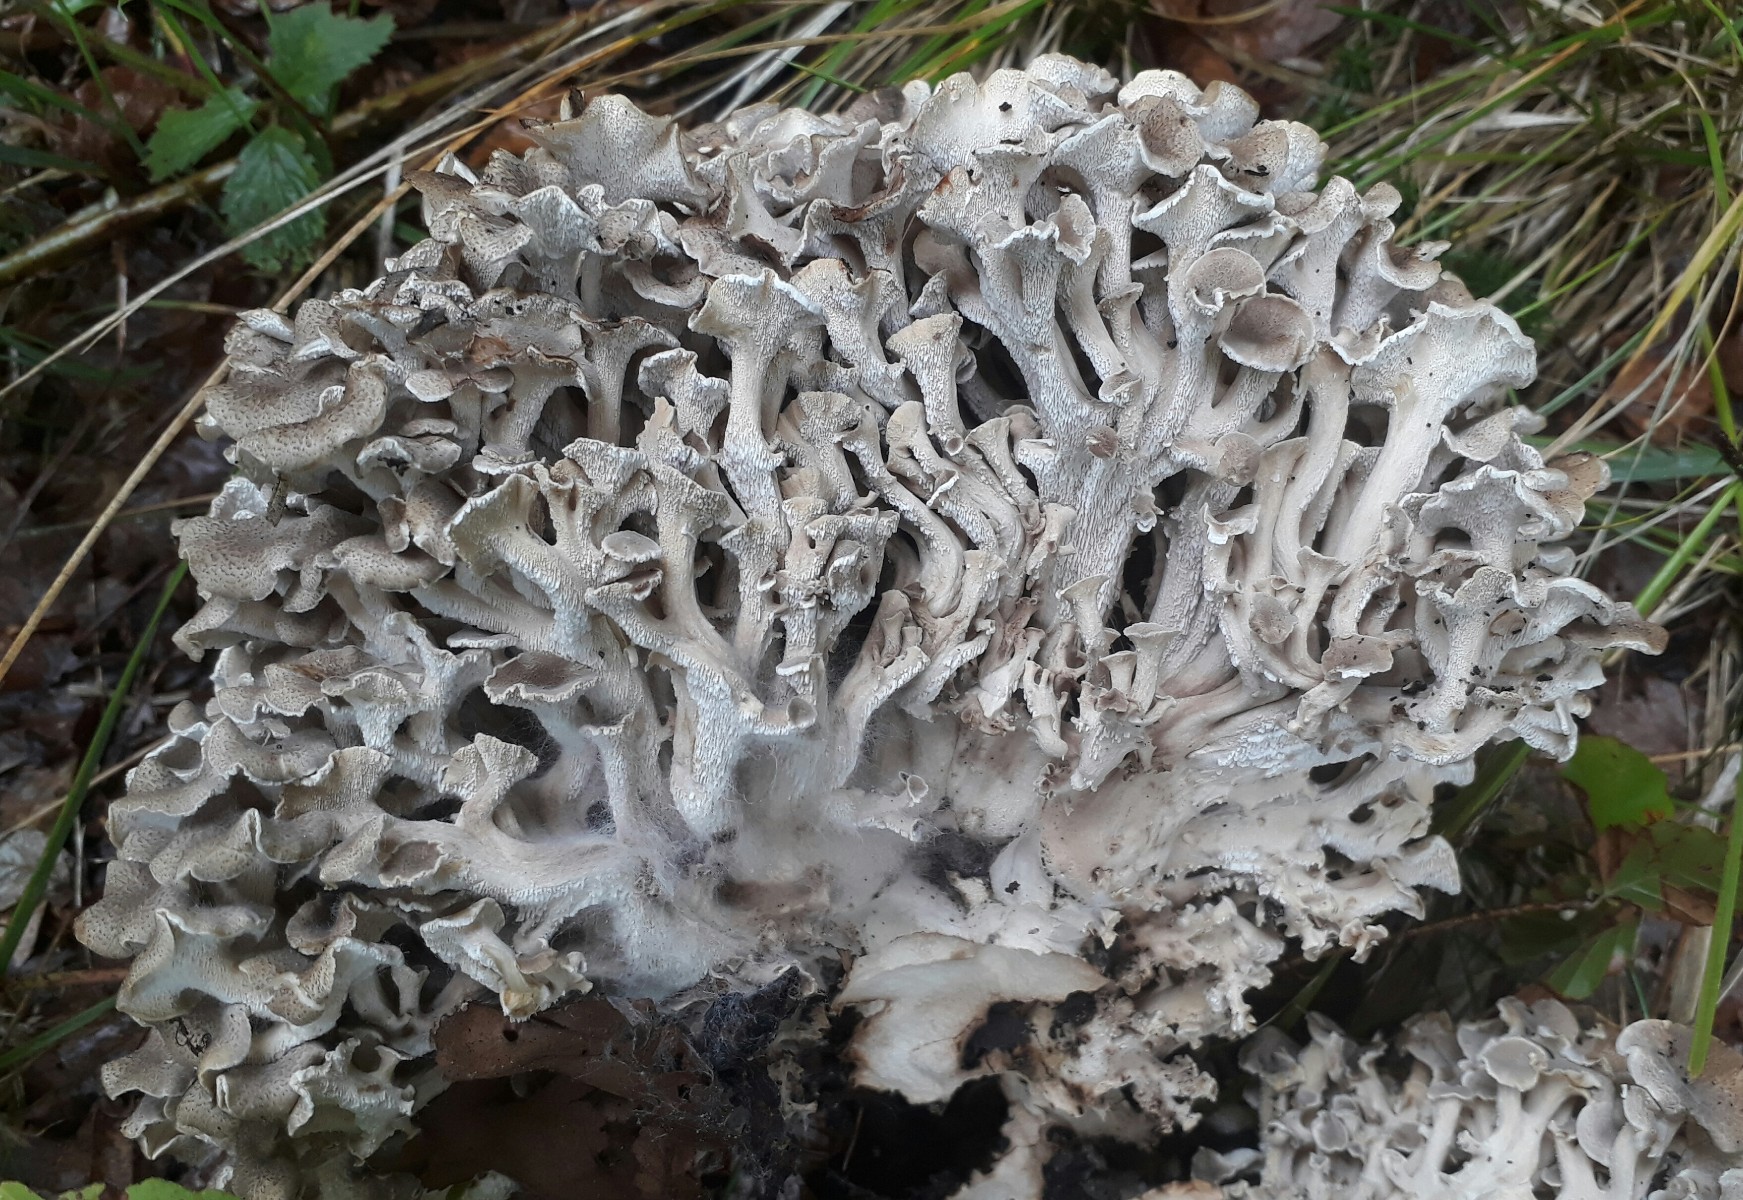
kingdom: Fungi
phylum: Basidiomycota
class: Agaricomycetes
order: Polyporales
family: Polyporaceae
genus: Polyporus
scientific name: Polyporus umbellatus
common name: skærmformet stilkporesvamp
